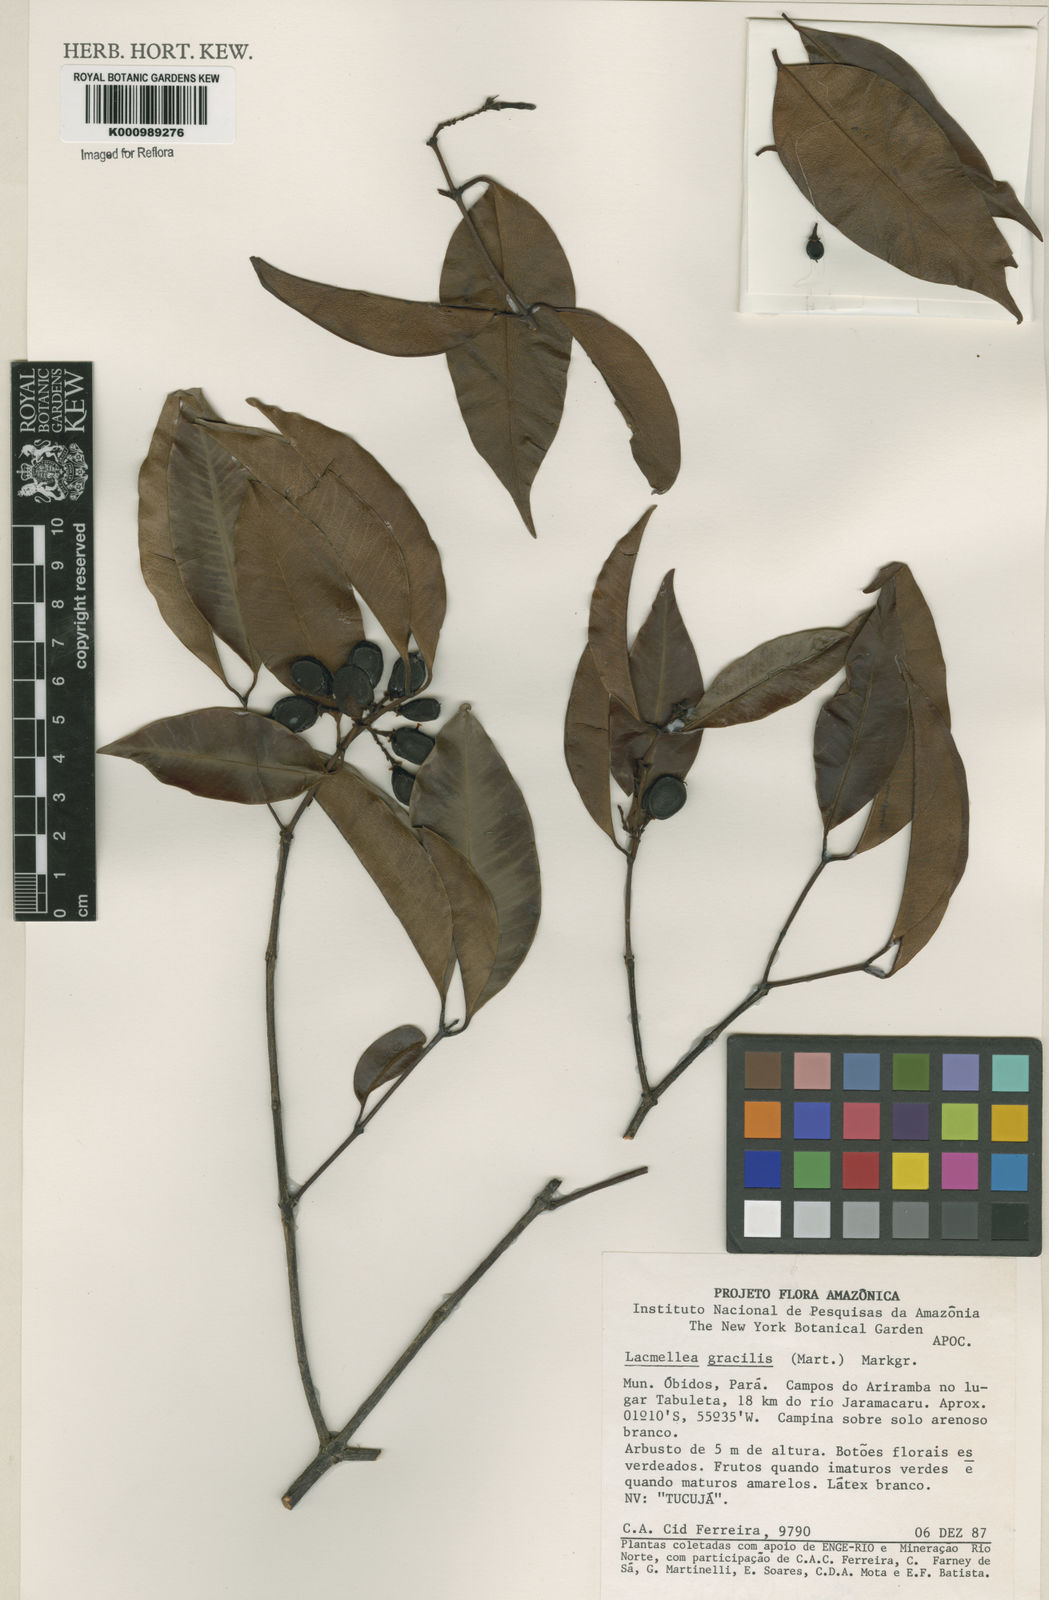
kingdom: Plantae
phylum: Tracheophyta
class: Magnoliopsida
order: Gentianales
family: Apocynaceae
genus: Lacmellea
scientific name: Lacmellea
